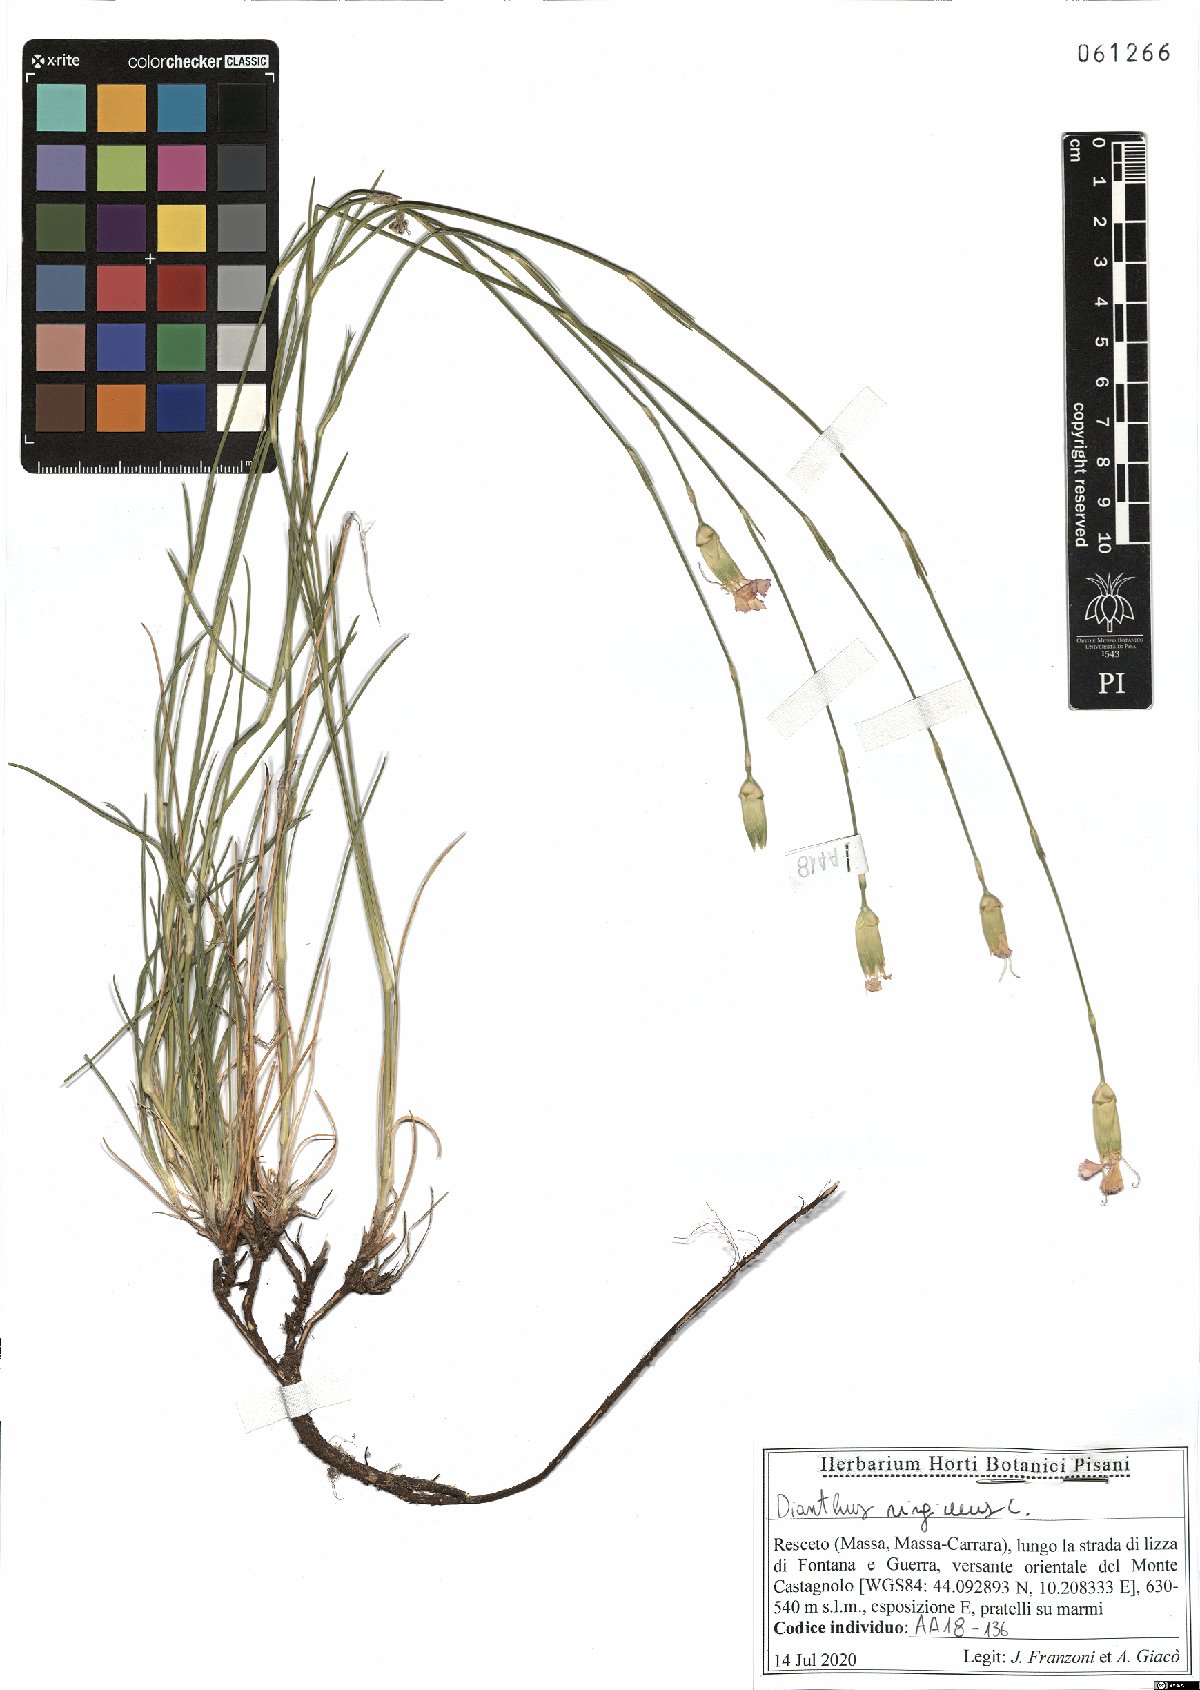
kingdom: Plantae
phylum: Tracheophyta
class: Magnoliopsida
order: Caryophyllales
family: Caryophyllaceae
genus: Dianthus
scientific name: Dianthus virgineus
